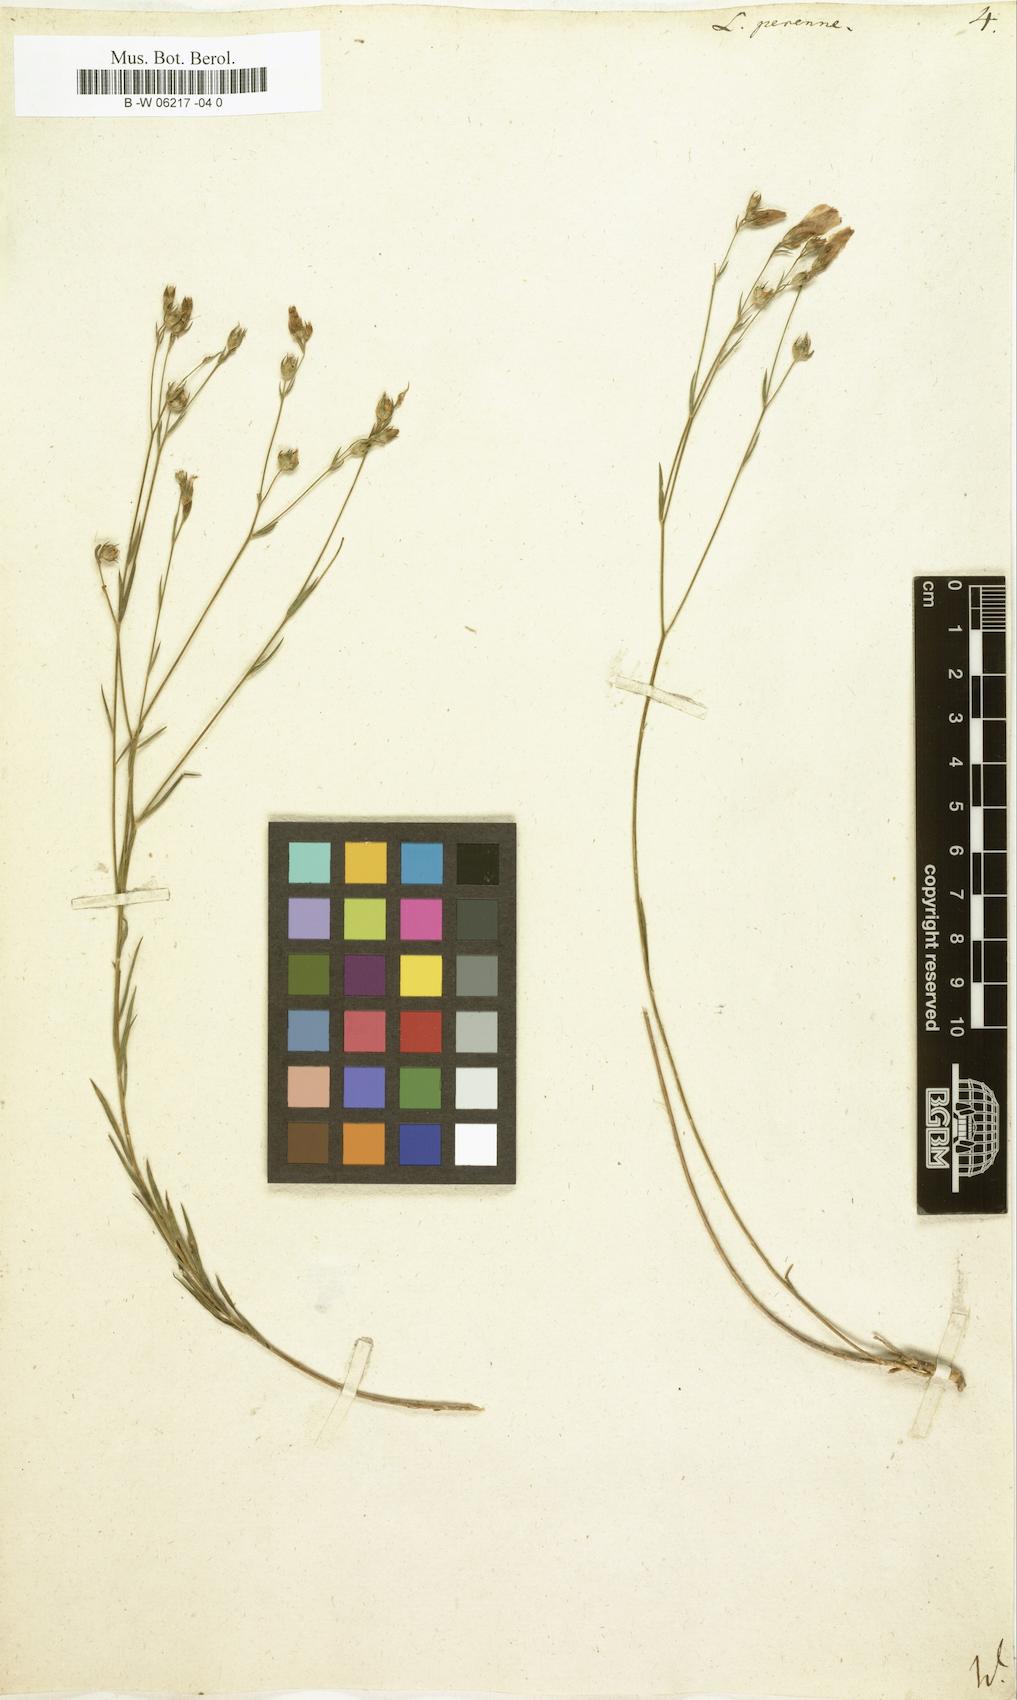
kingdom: Plantae
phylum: Tracheophyta
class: Magnoliopsida
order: Malpighiales
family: Linaceae
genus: Linum
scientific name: Linum perenne
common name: Blue flax
